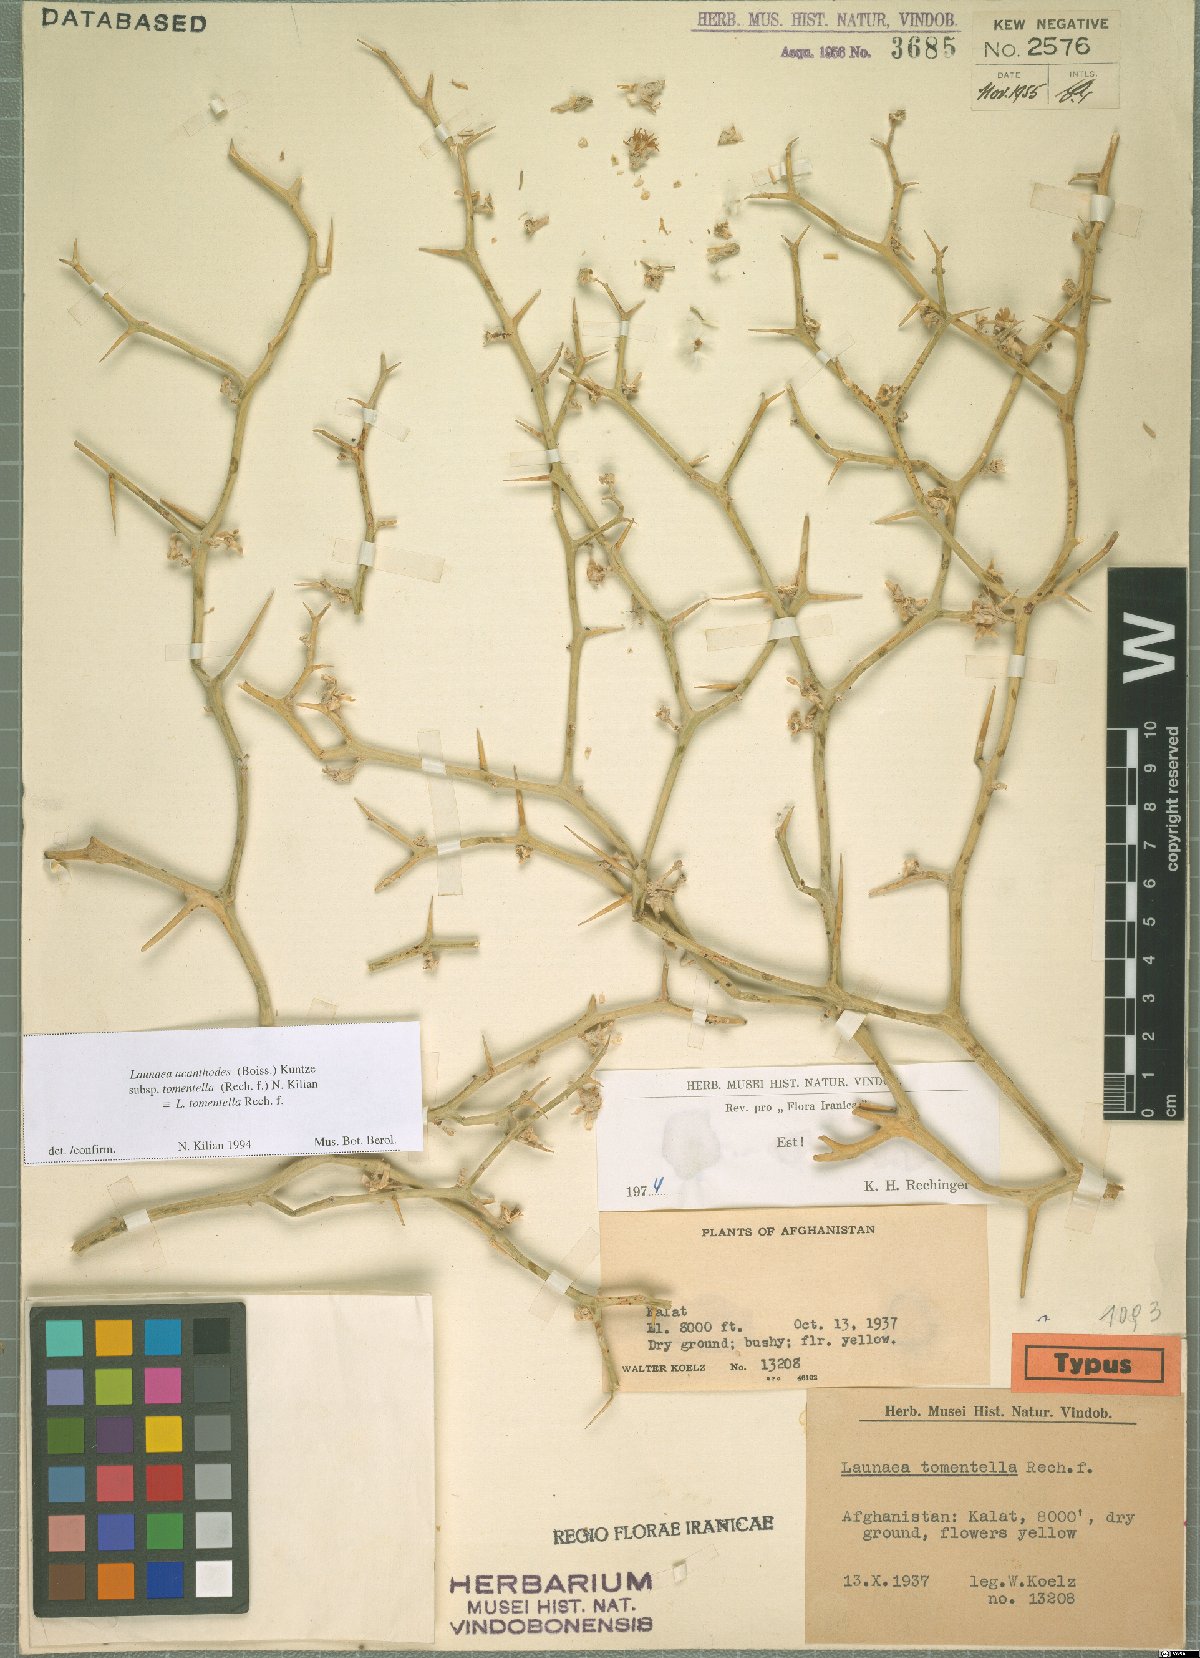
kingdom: Plantae
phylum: Tracheophyta
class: Magnoliopsida
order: Asterales
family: Asteraceae
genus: Launaea
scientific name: Launaea acanthodes
